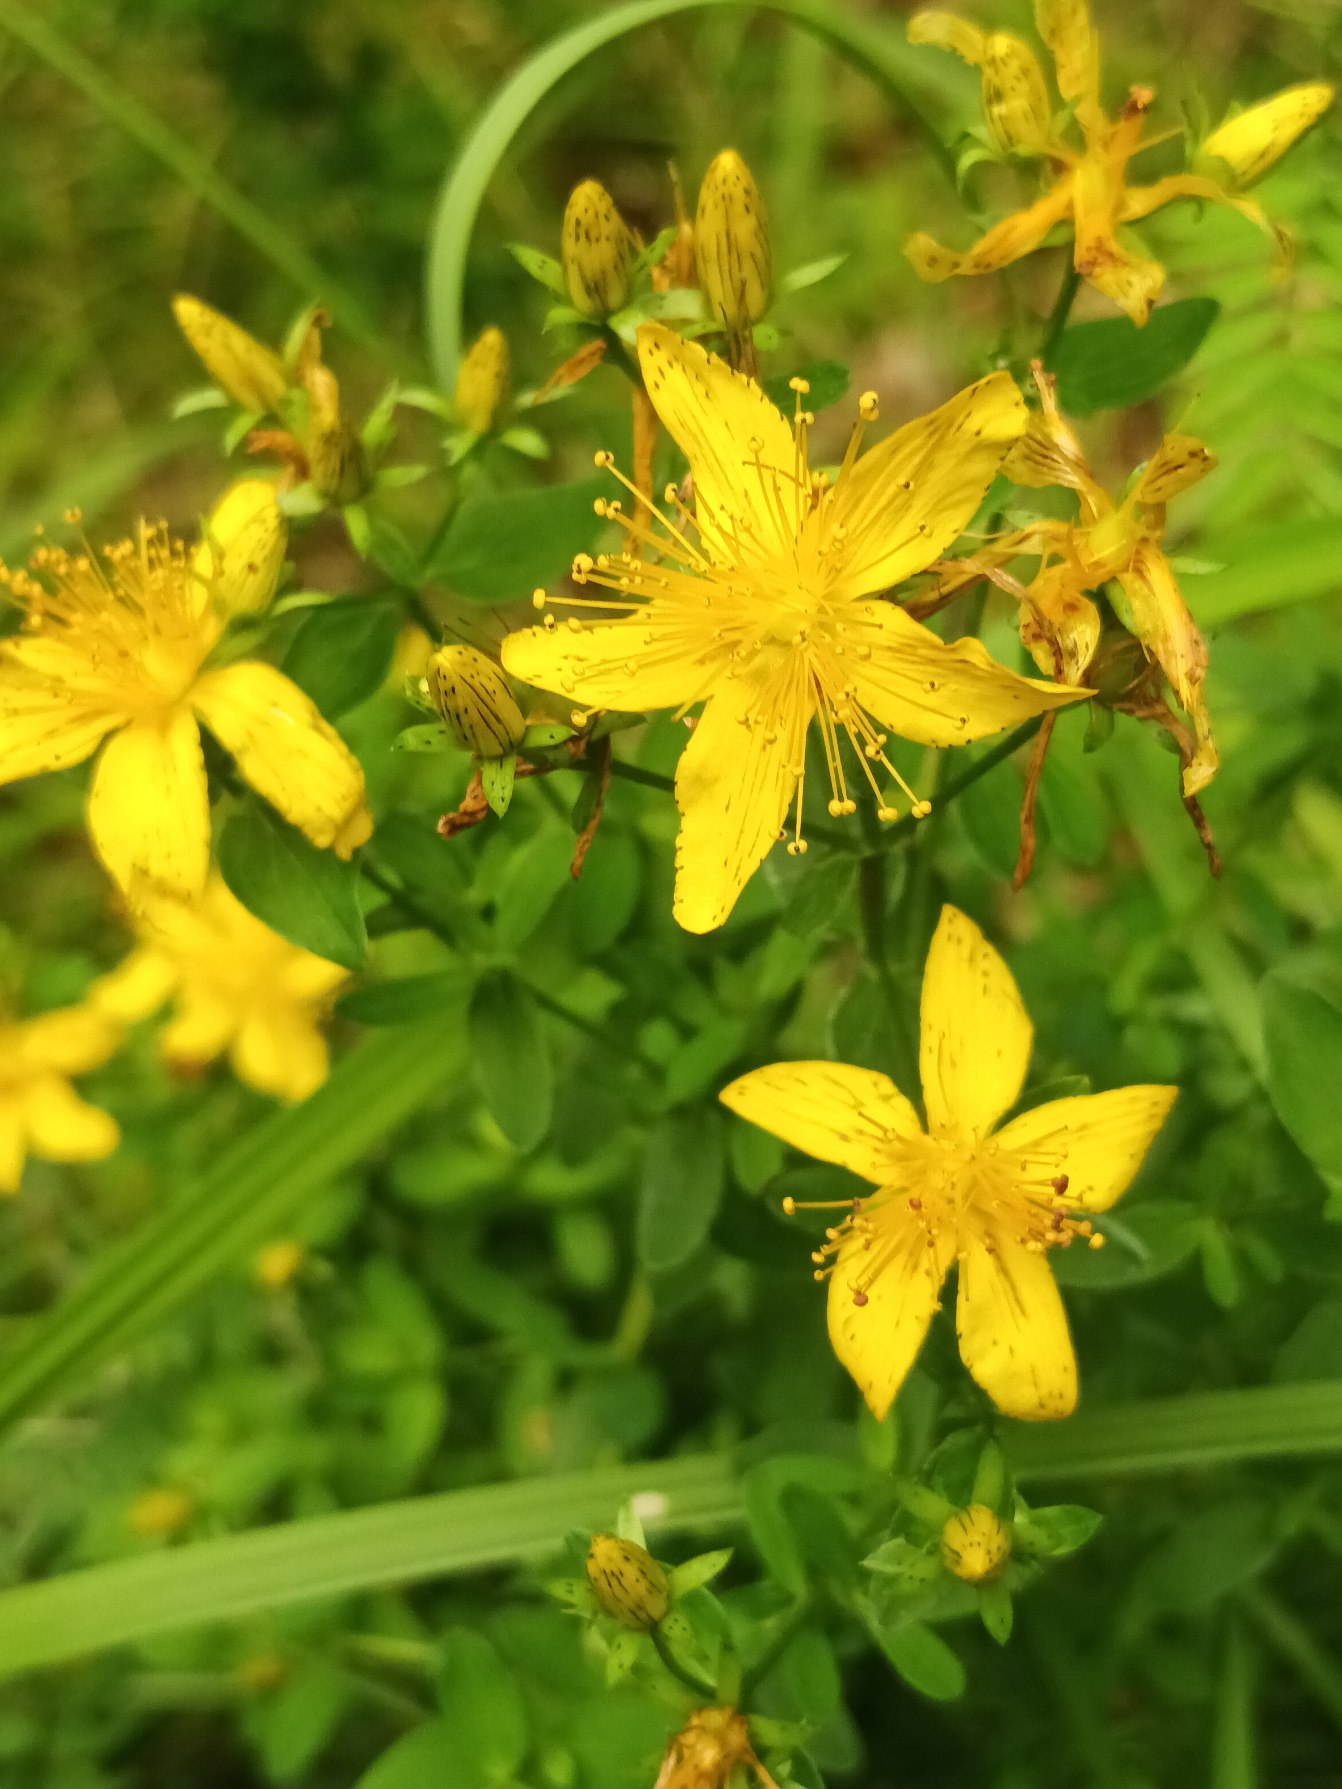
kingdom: Plantae
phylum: Tracheophyta
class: Magnoliopsida
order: Malpighiales
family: Hypericaceae
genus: Hypericum
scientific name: Hypericum perforatum
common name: Prikbladet perikon
